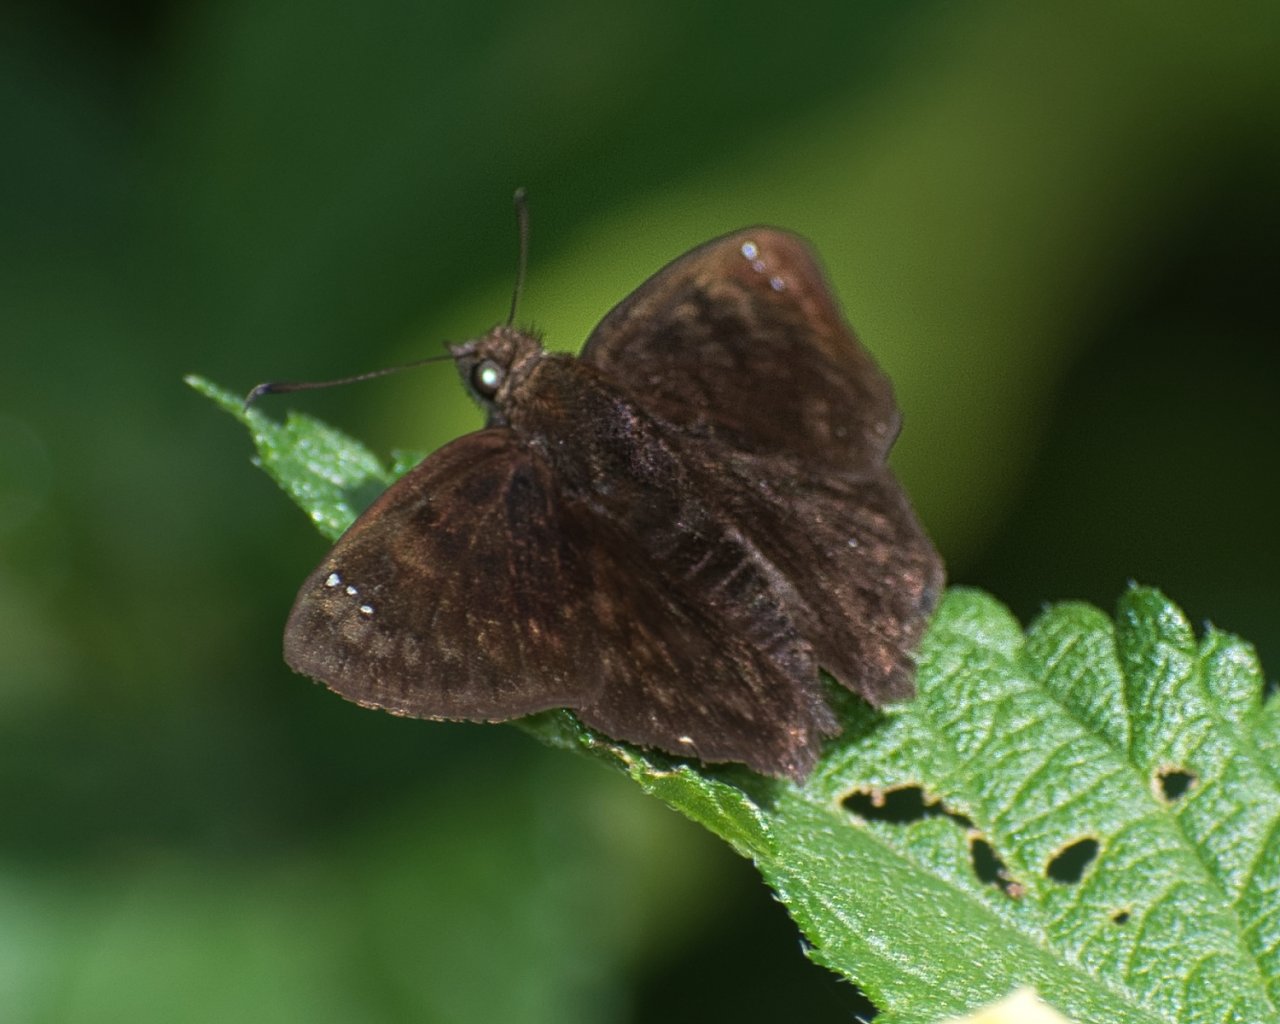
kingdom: Animalia
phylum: Arthropoda
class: Insecta
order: Lepidoptera
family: Hesperiidae
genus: Nisoniades
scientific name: Nisoniades bessus
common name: Godma Tufted-Skipper
